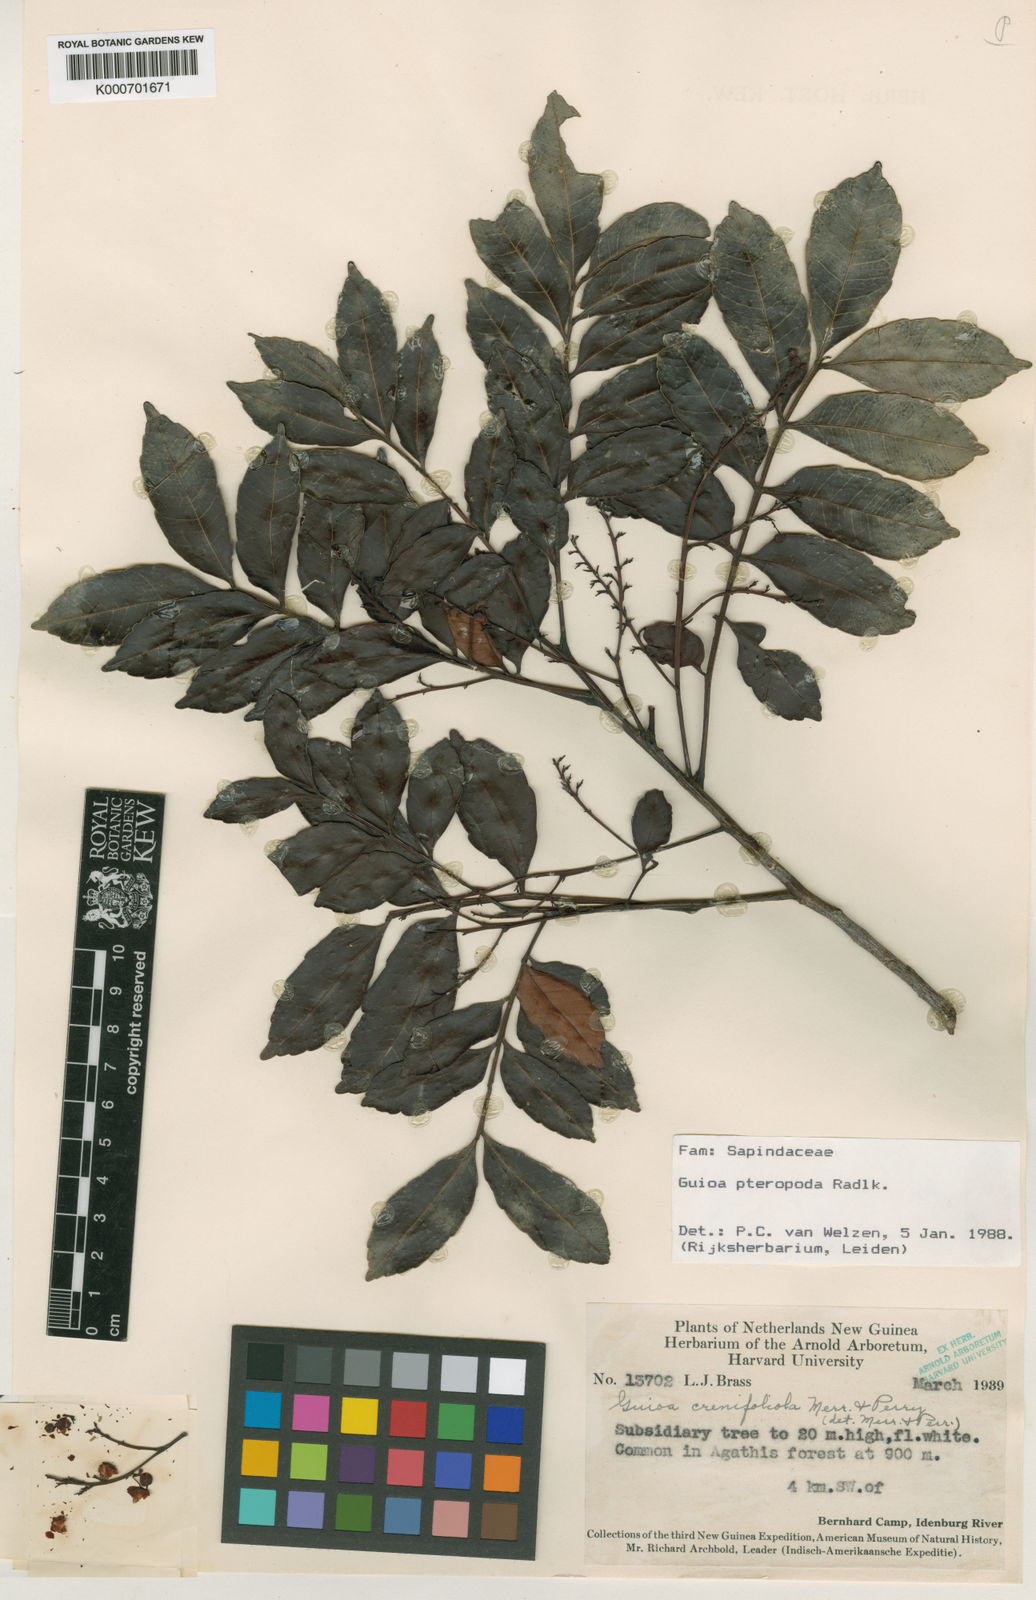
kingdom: Plantae
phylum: Tracheophyta
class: Magnoliopsida
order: Sapindales
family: Sapindaceae
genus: Guioa
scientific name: Guioa pteropoda
